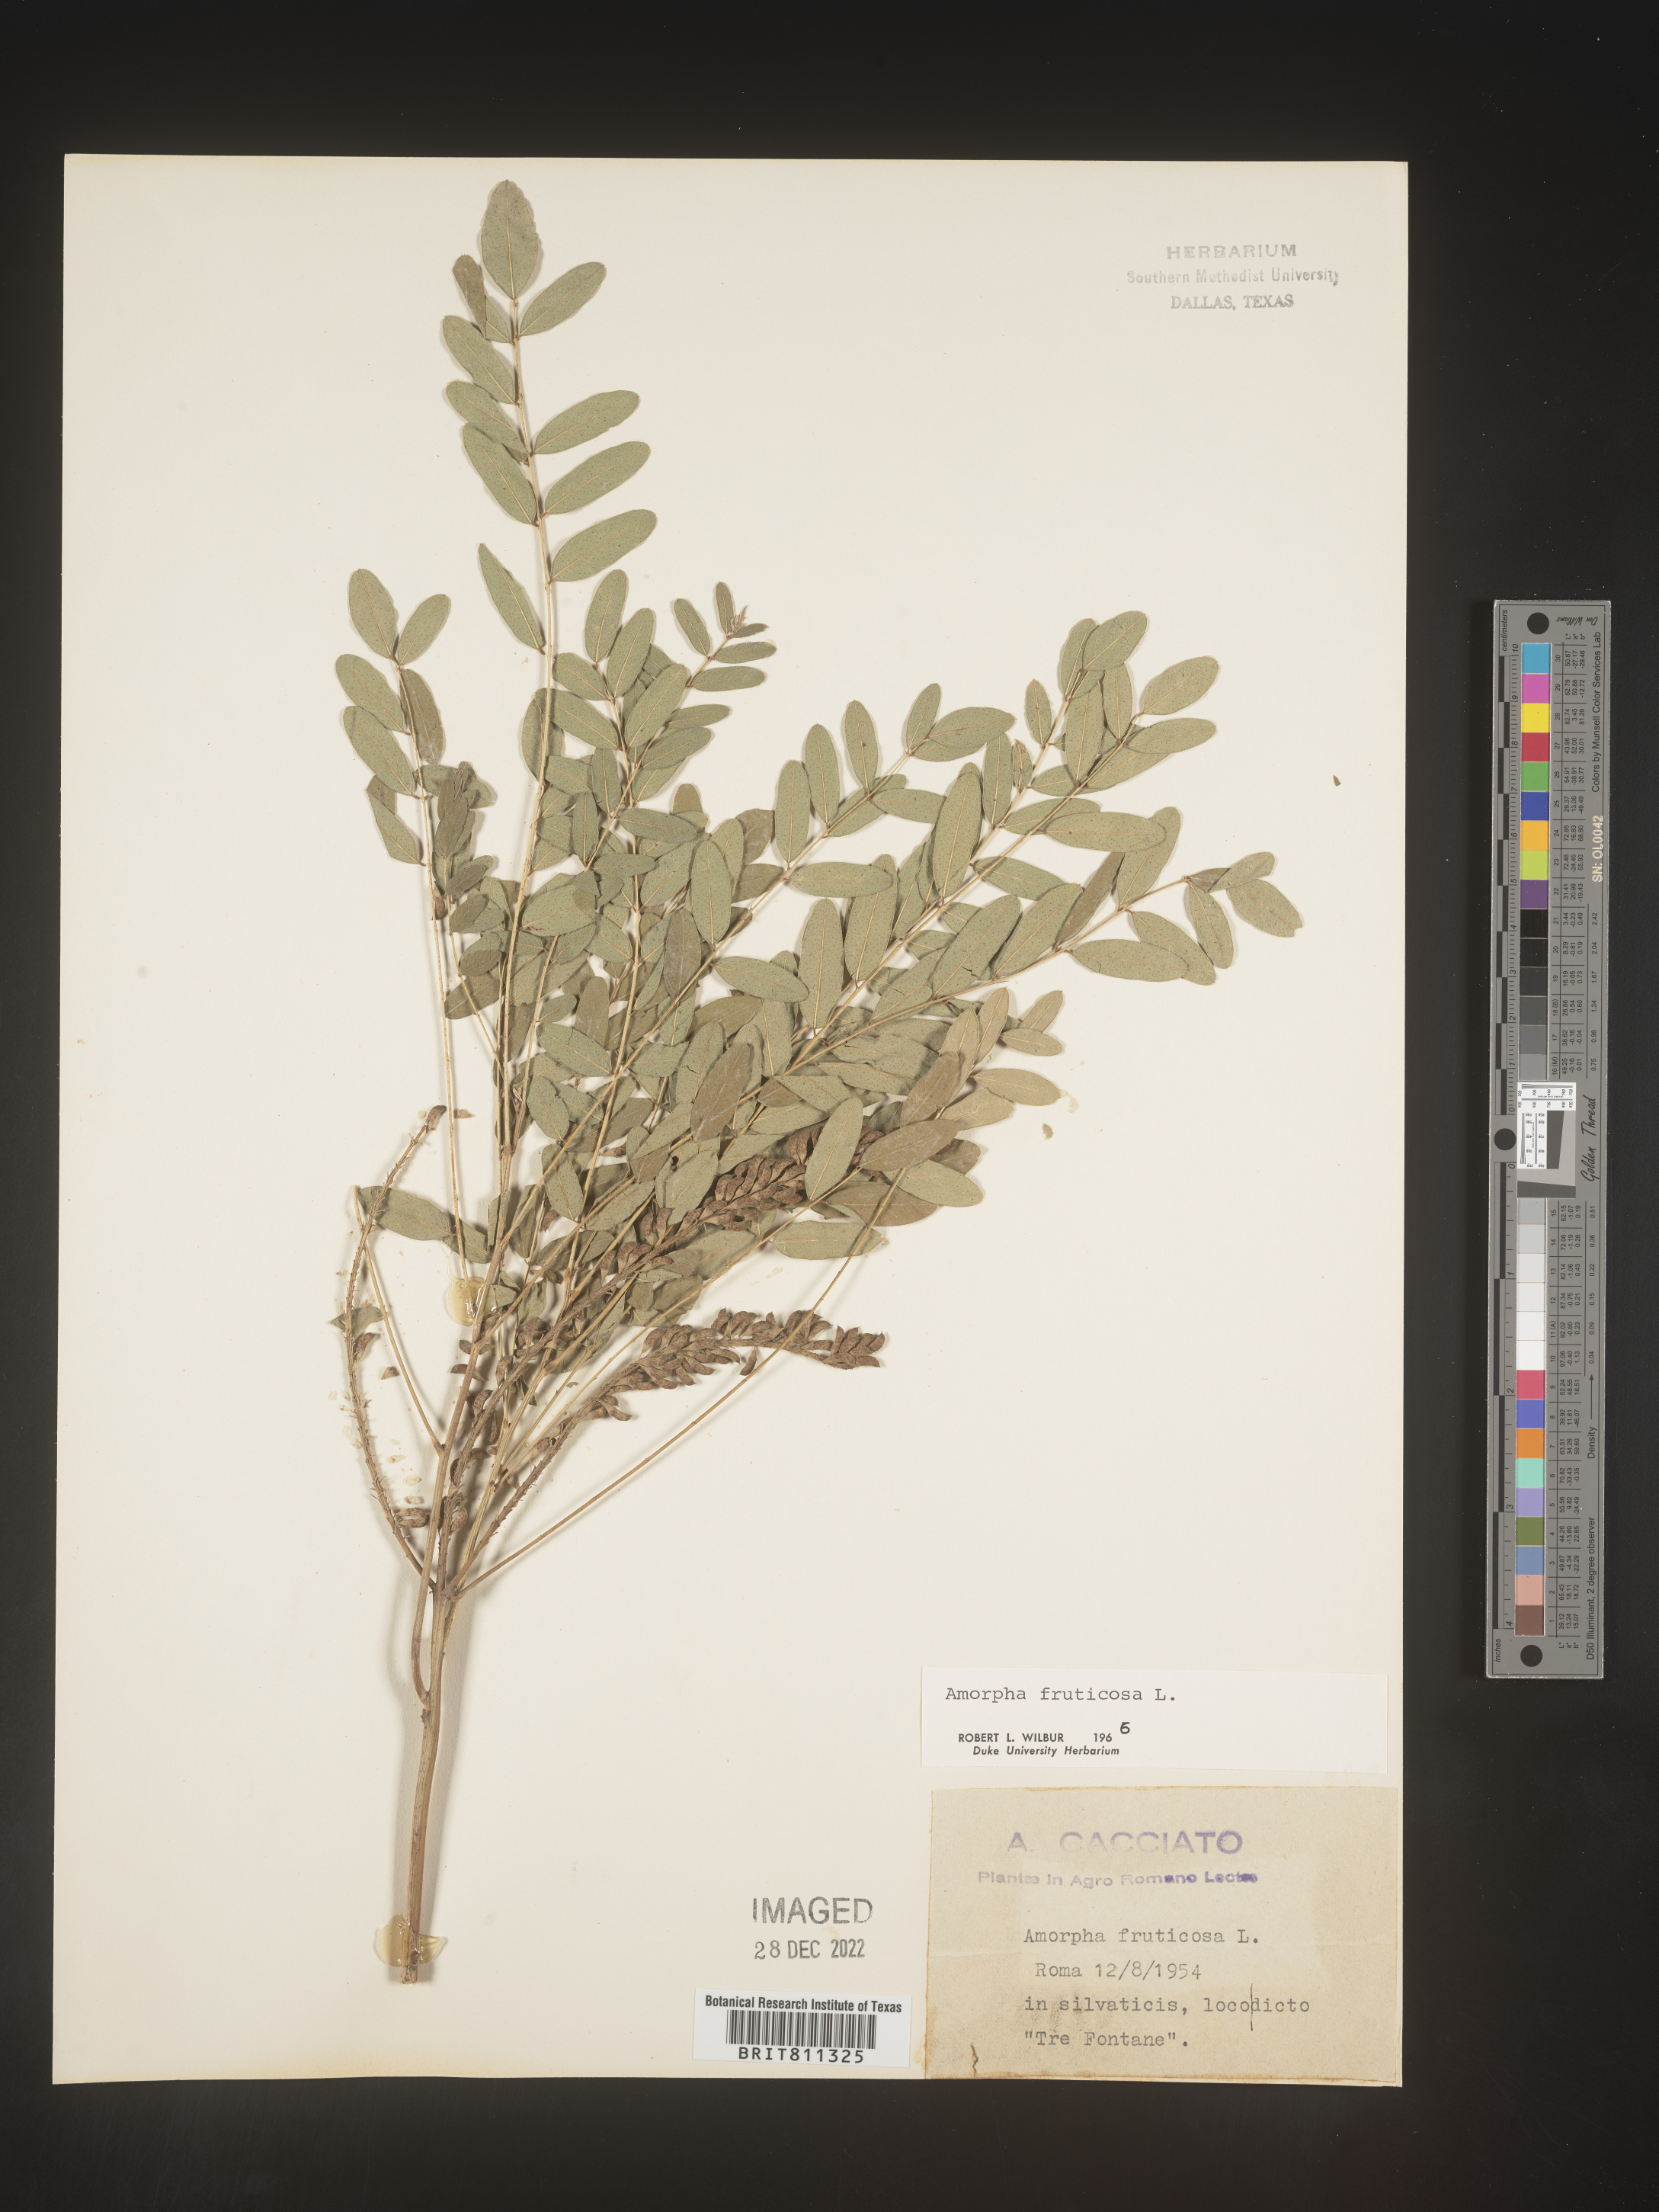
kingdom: Plantae
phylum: Tracheophyta
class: Magnoliopsida
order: Fabales
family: Fabaceae
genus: Amorpha
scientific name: Amorpha
